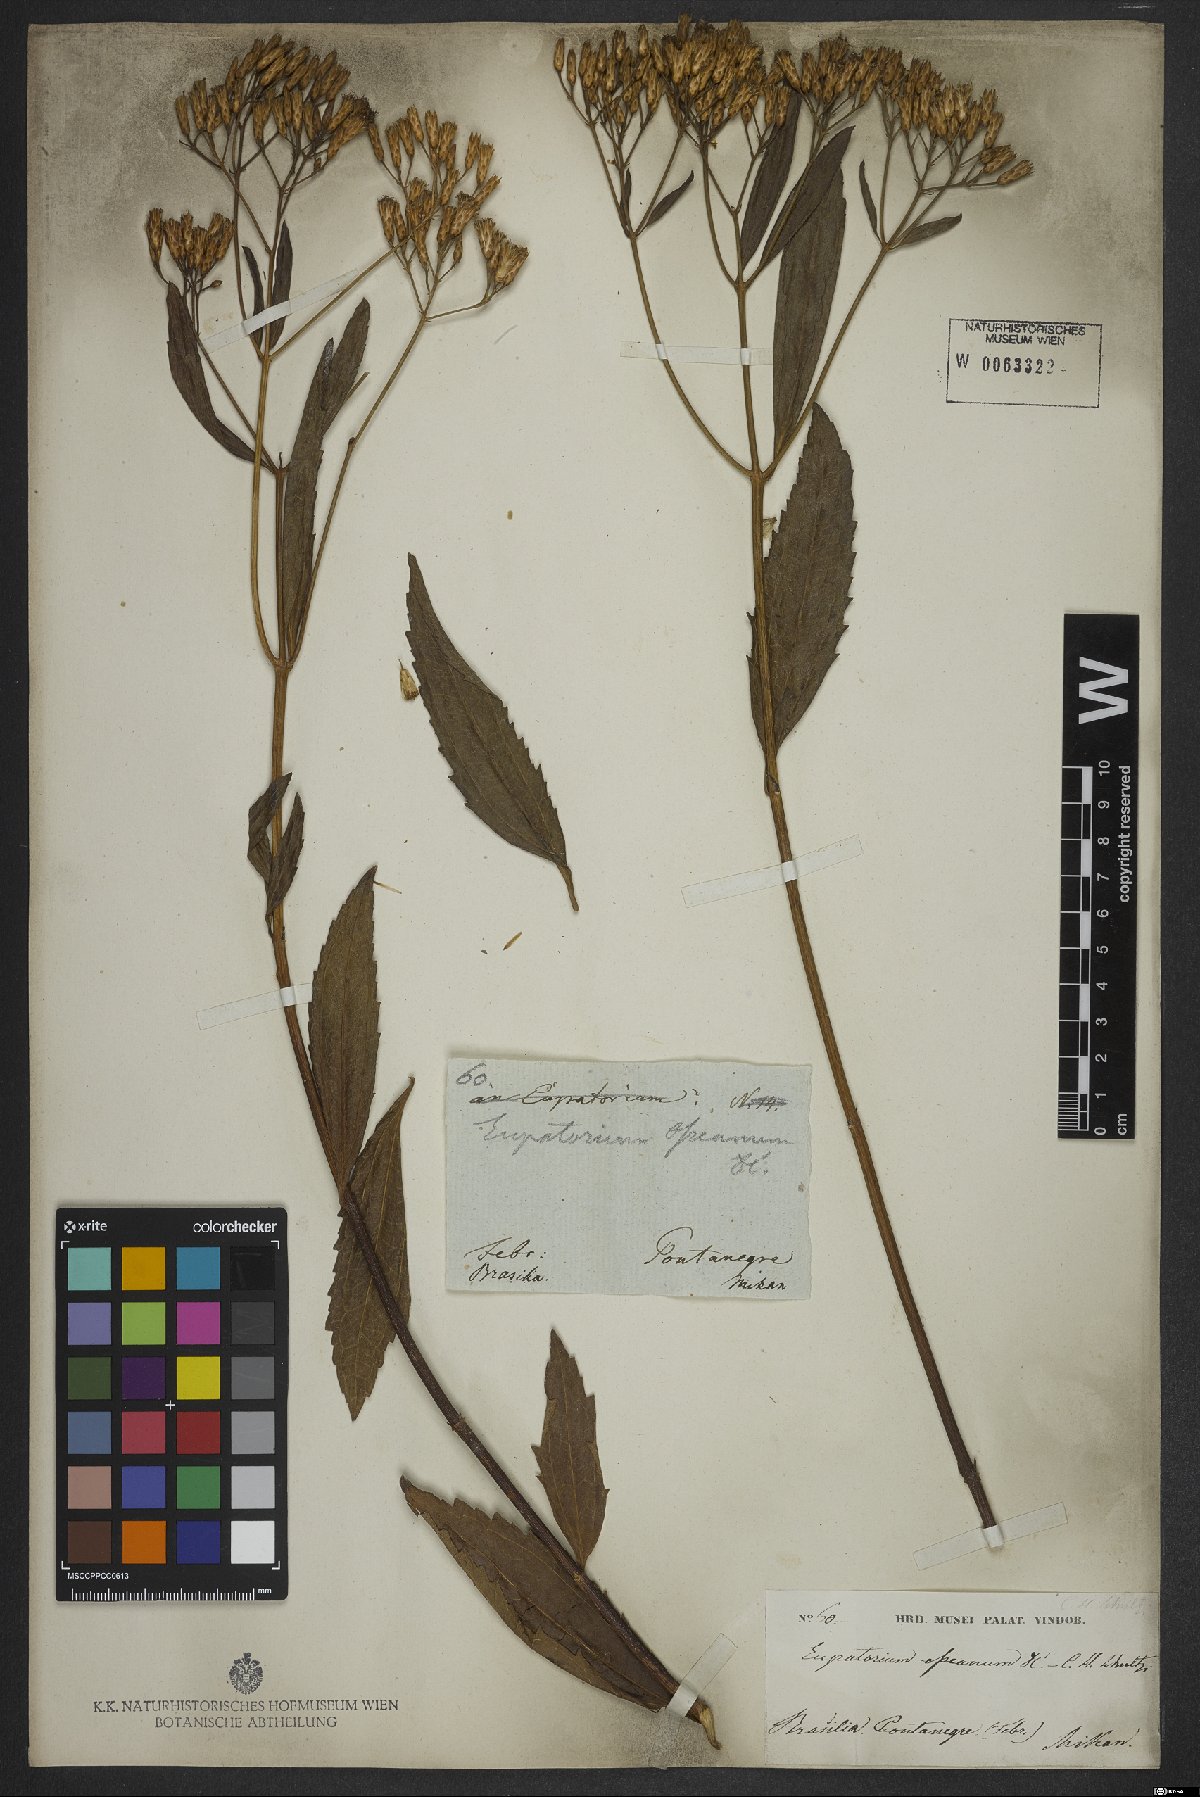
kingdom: Plantae
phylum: Tracheophyta
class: Magnoliopsida
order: Asterales
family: Asteraceae
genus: Eupatorium
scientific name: Eupatorium laevigatum
